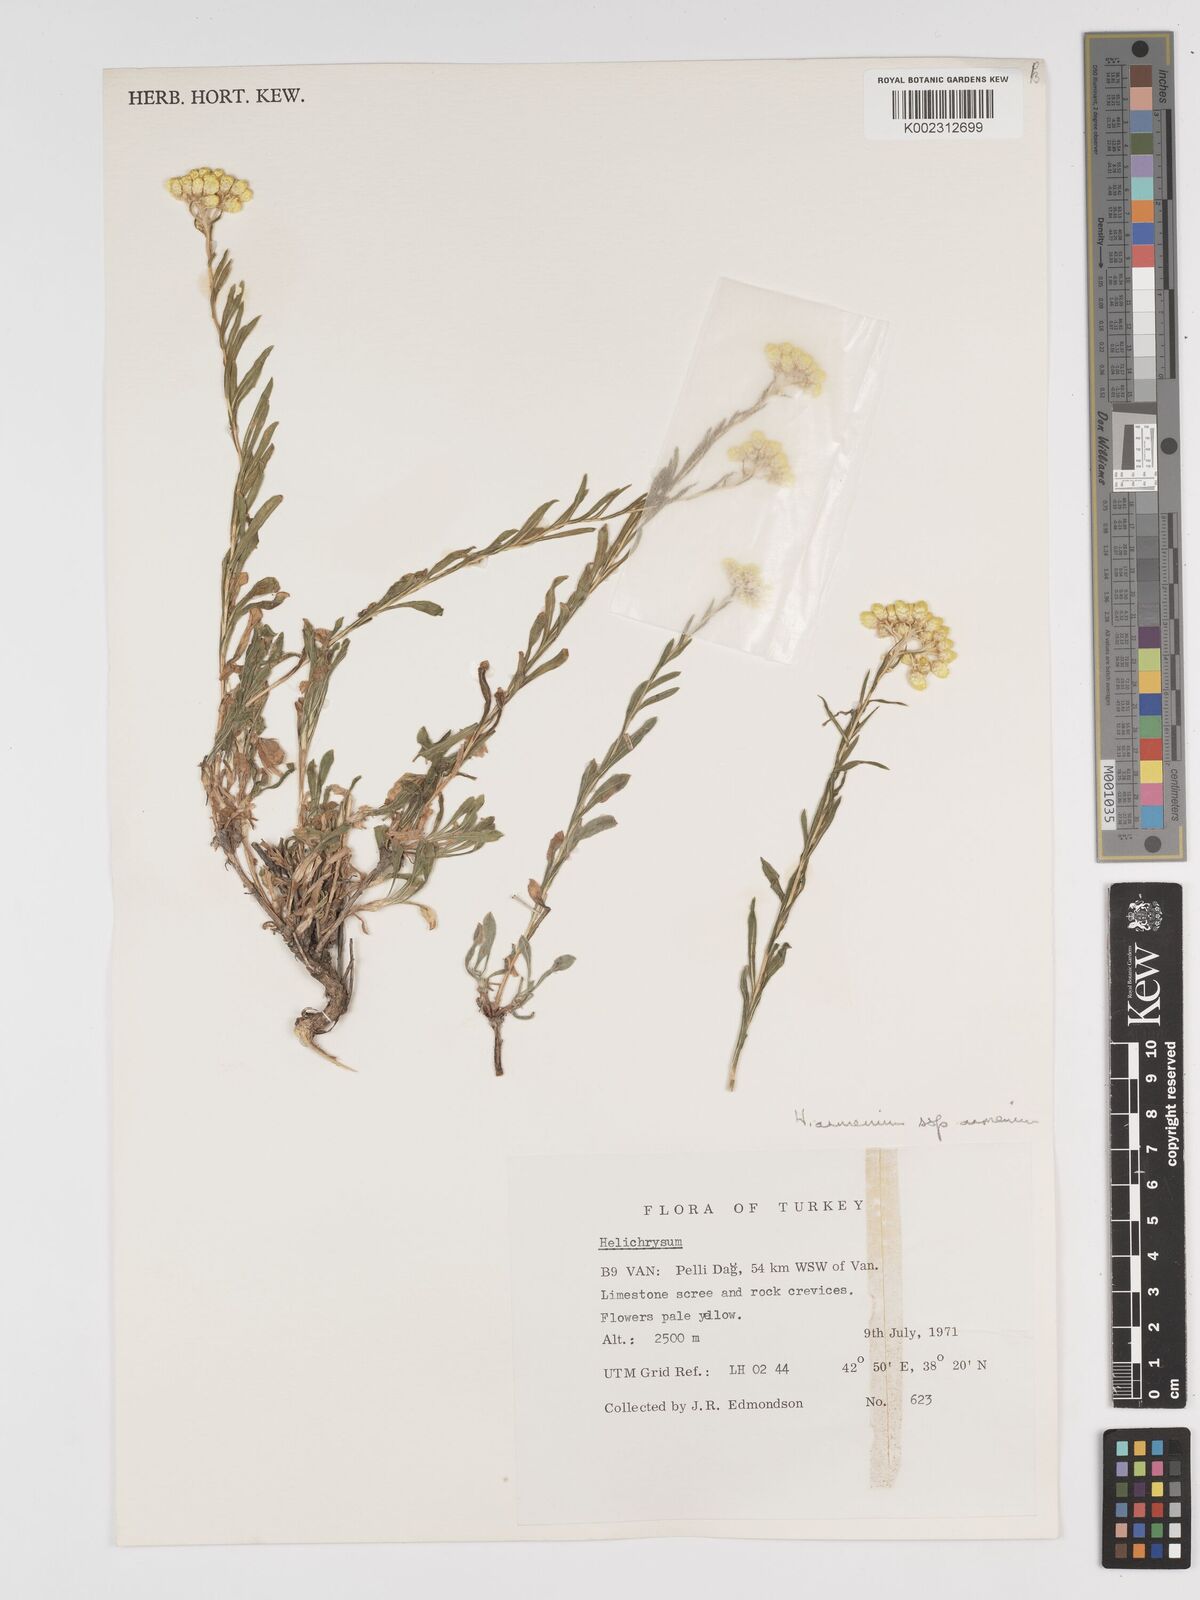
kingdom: Plantae
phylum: Tracheophyta
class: Magnoliopsida
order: Asterales
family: Asteraceae
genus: Helichrysum
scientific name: Helichrysum armenium
